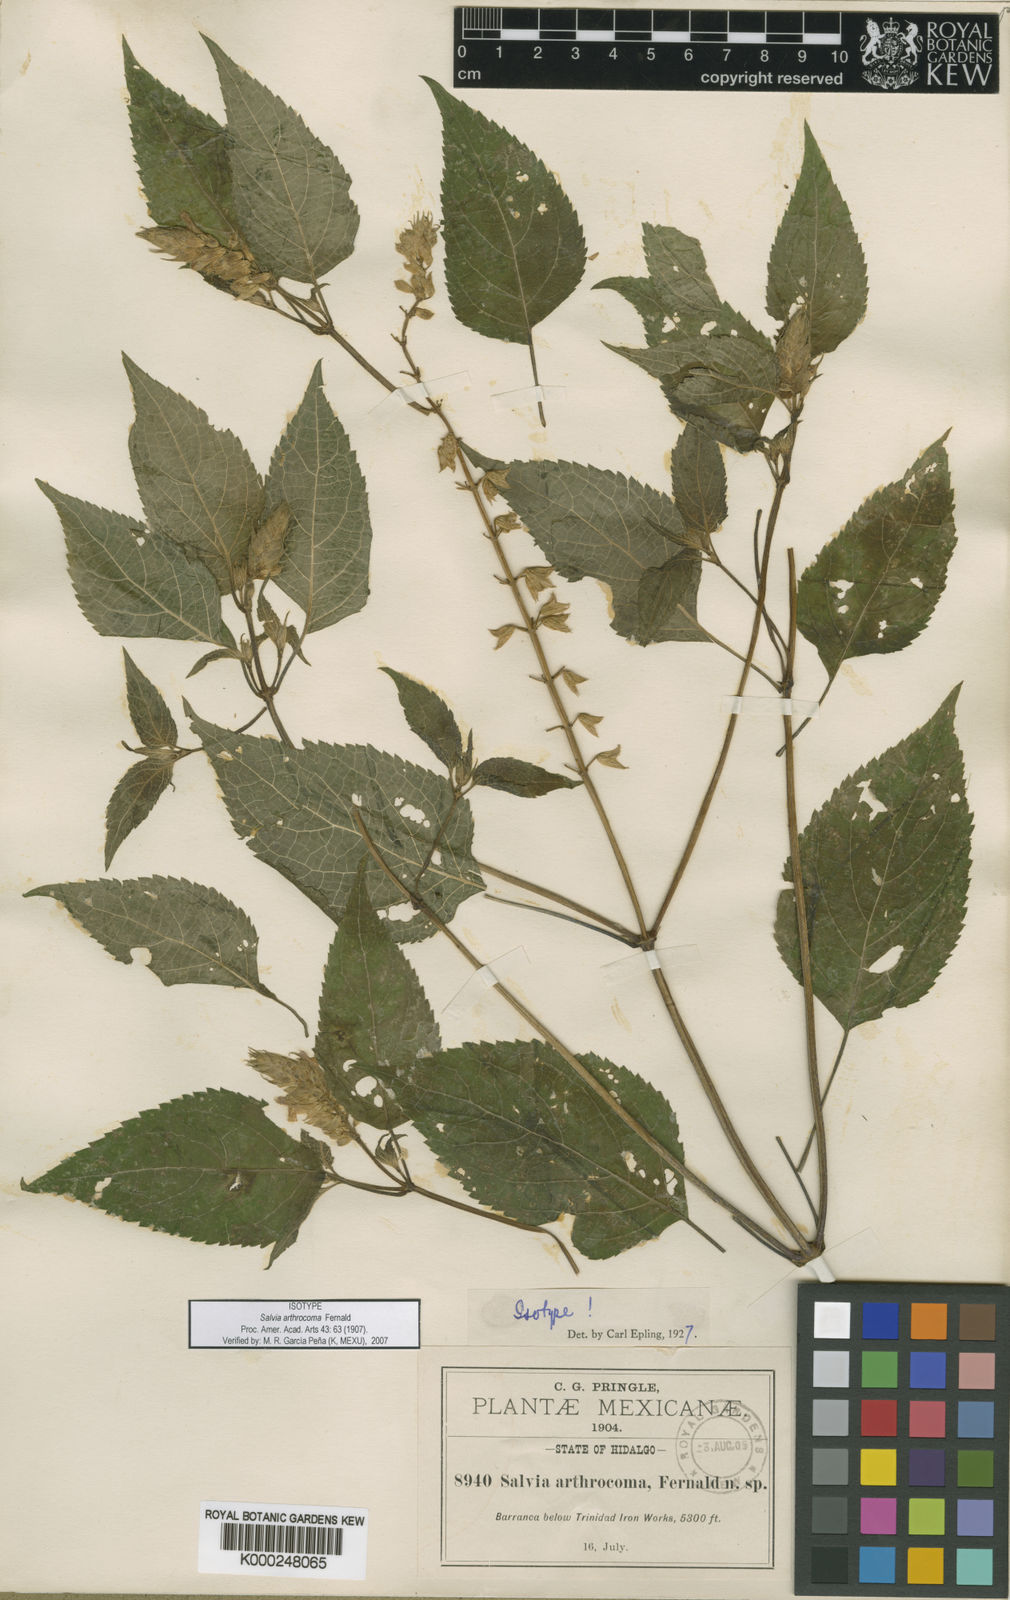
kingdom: Plantae
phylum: Tracheophyta
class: Magnoliopsida
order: Lamiales
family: Lamiaceae
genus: Salvia
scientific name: Salvia arthrocoma
